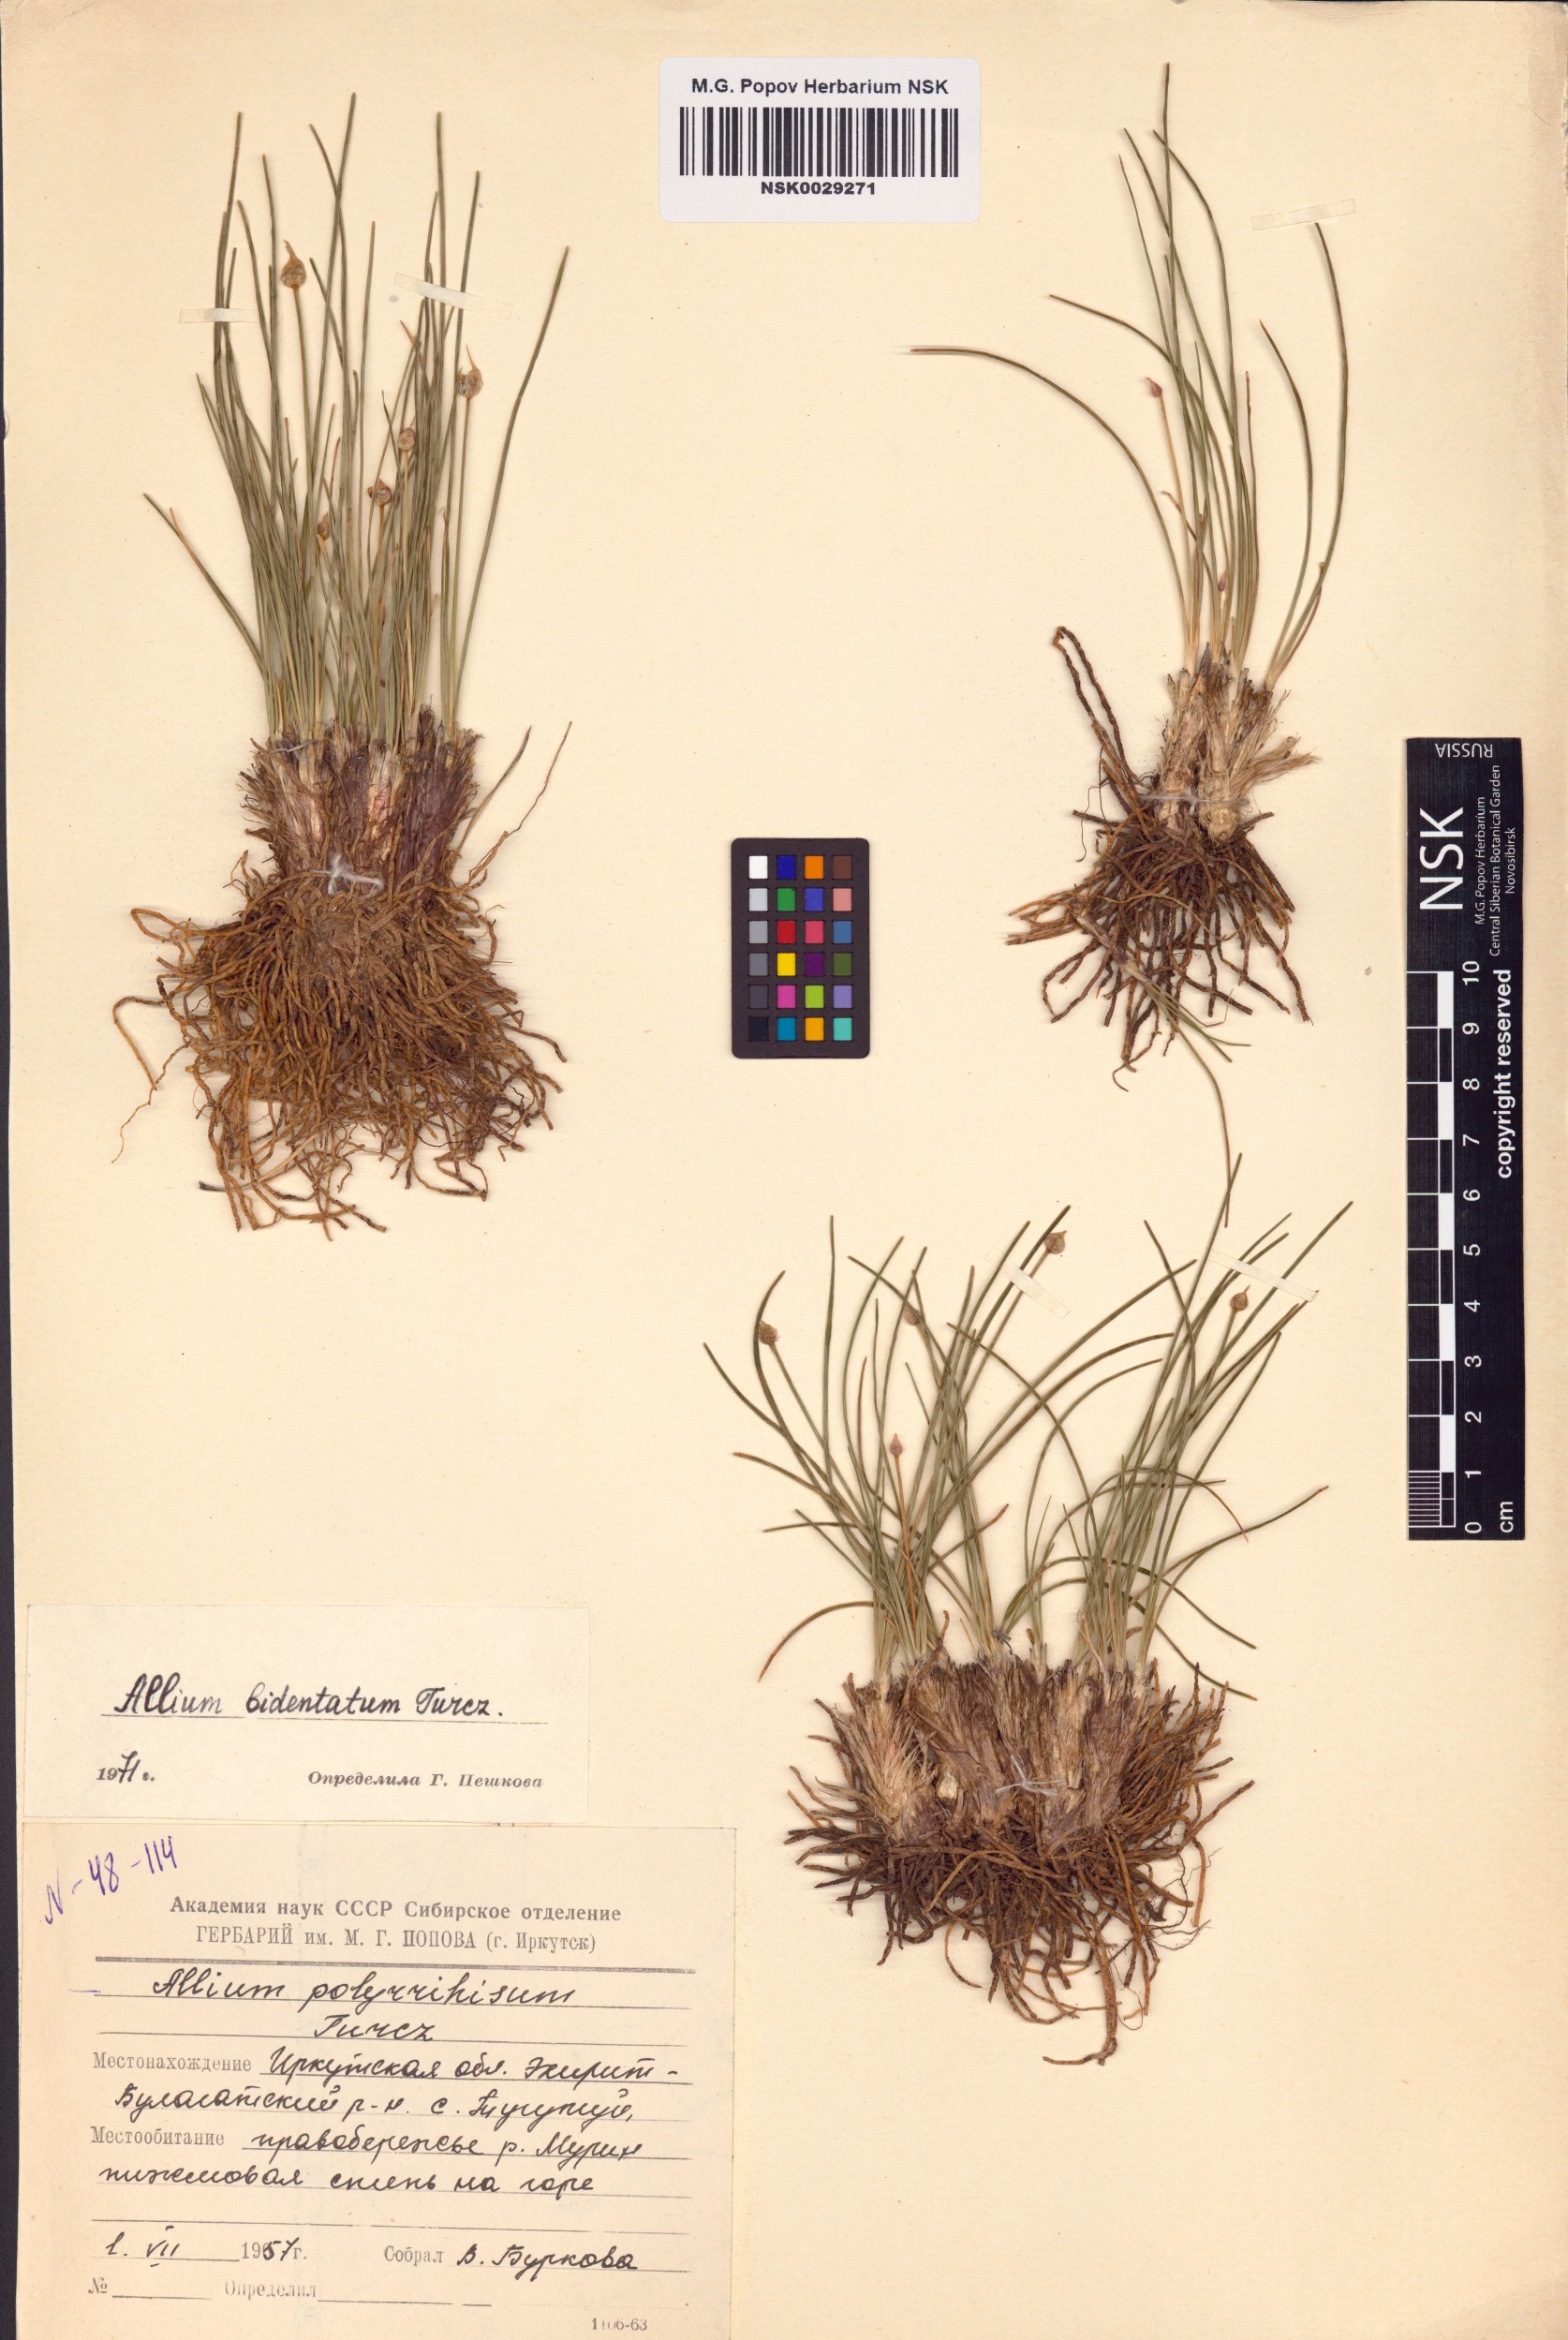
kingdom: Plantae
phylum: Tracheophyta
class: Liliopsida
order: Asparagales
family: Amaryllidaceae
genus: Allium
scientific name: Allium bidentatum
